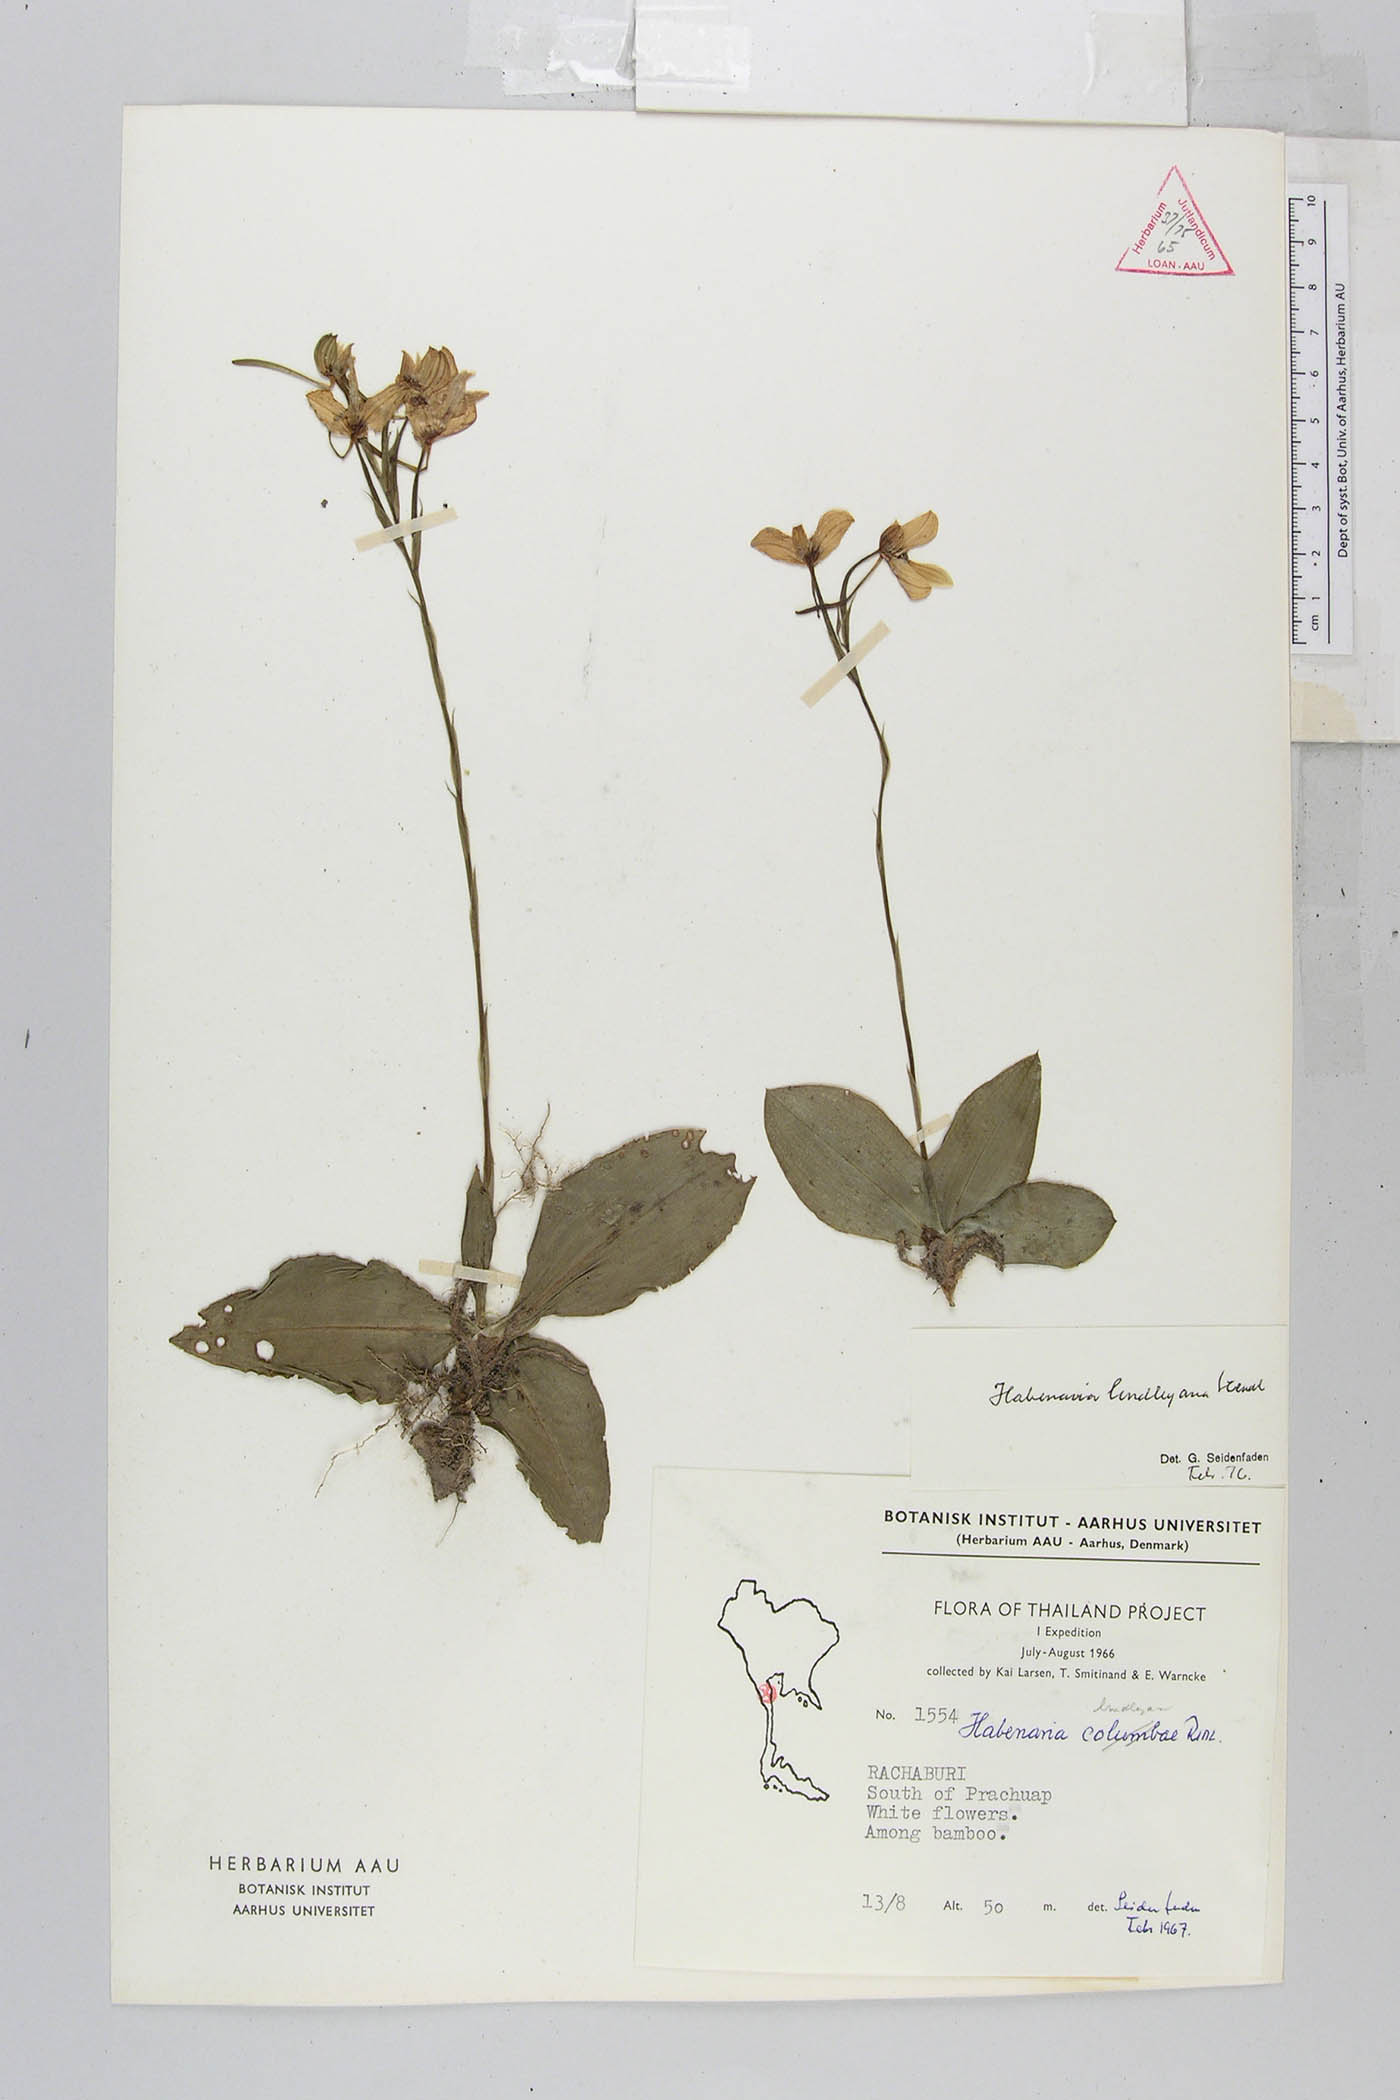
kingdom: Plantae
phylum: Tracheophyta
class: Liliopsida
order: Asparagales
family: Orchidaceae
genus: Habenaria
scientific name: Habenaria lindleyana
